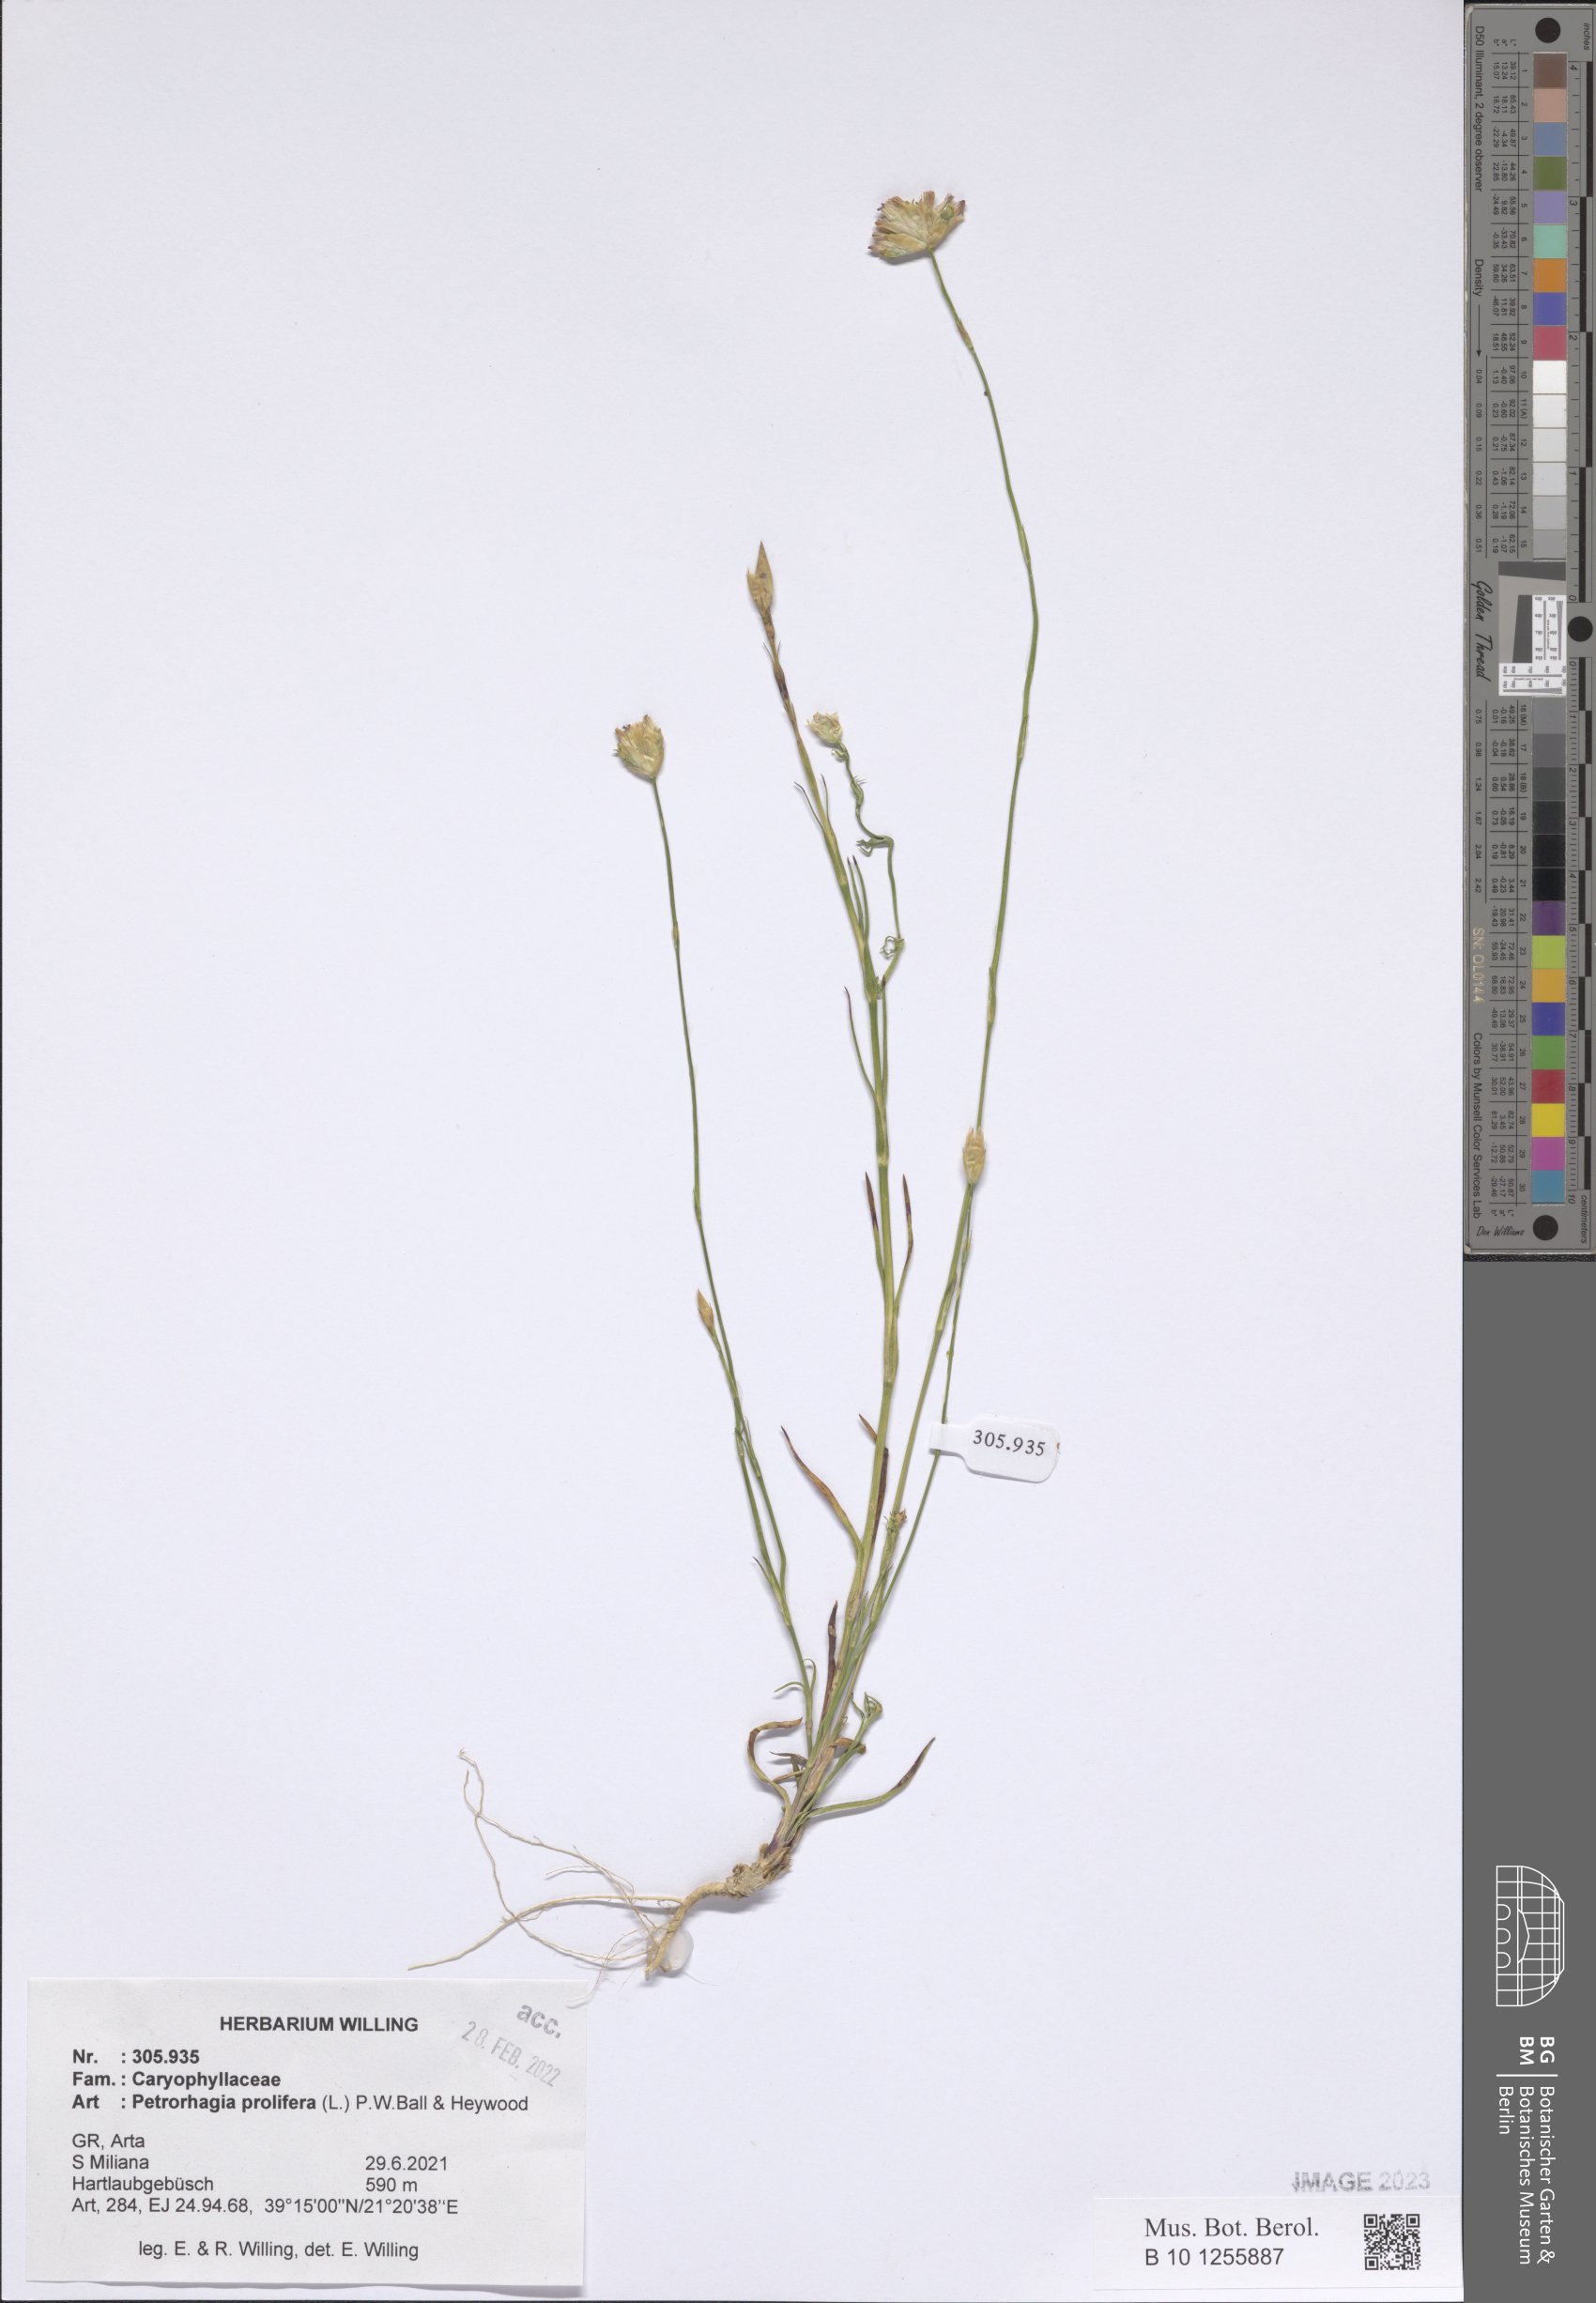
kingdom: Plantae
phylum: Tracheophyta
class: Magnoliopsida
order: Caryophyllales
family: Caryophyllaceae
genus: Petrorhagia
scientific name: Petrorhagia prolifera
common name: Proliferous pink
